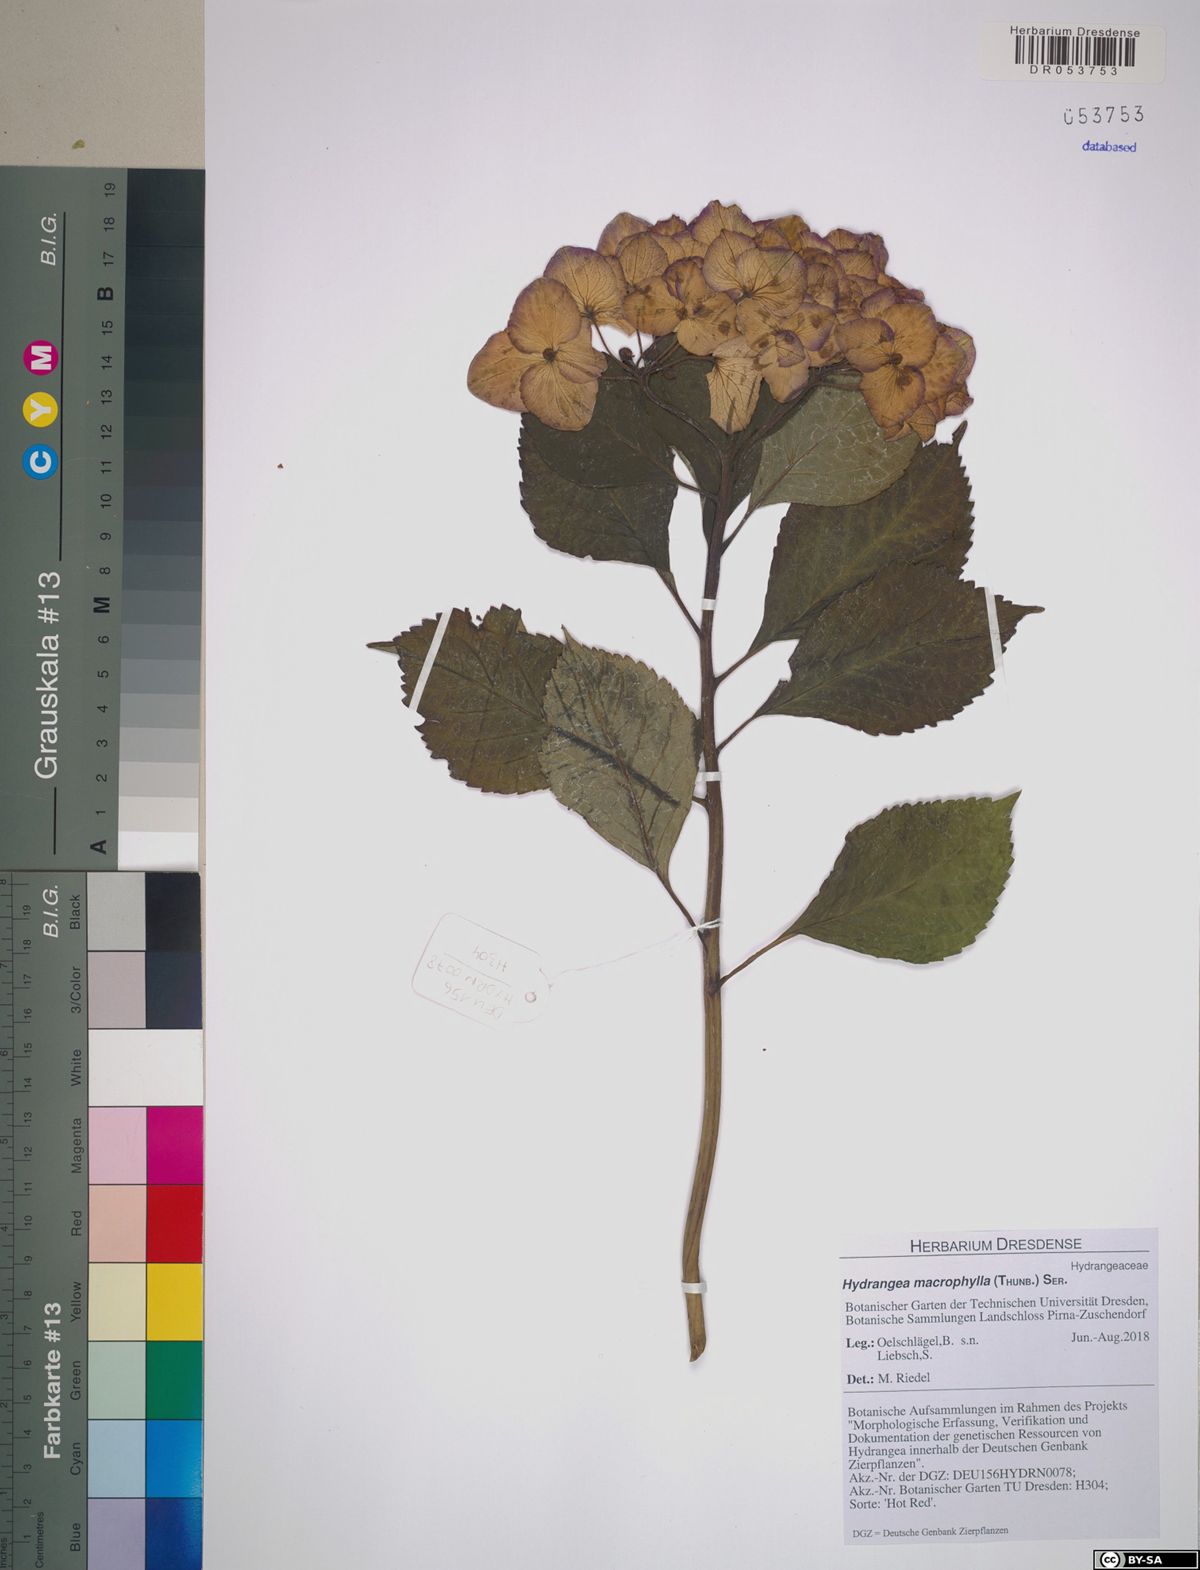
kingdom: Plantae
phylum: Tracheophyta
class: Magnoliopsida
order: Cornales
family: Hydrangeaceae
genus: Hydrangea
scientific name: Hydrangea macrophylla
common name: Hydrangea
